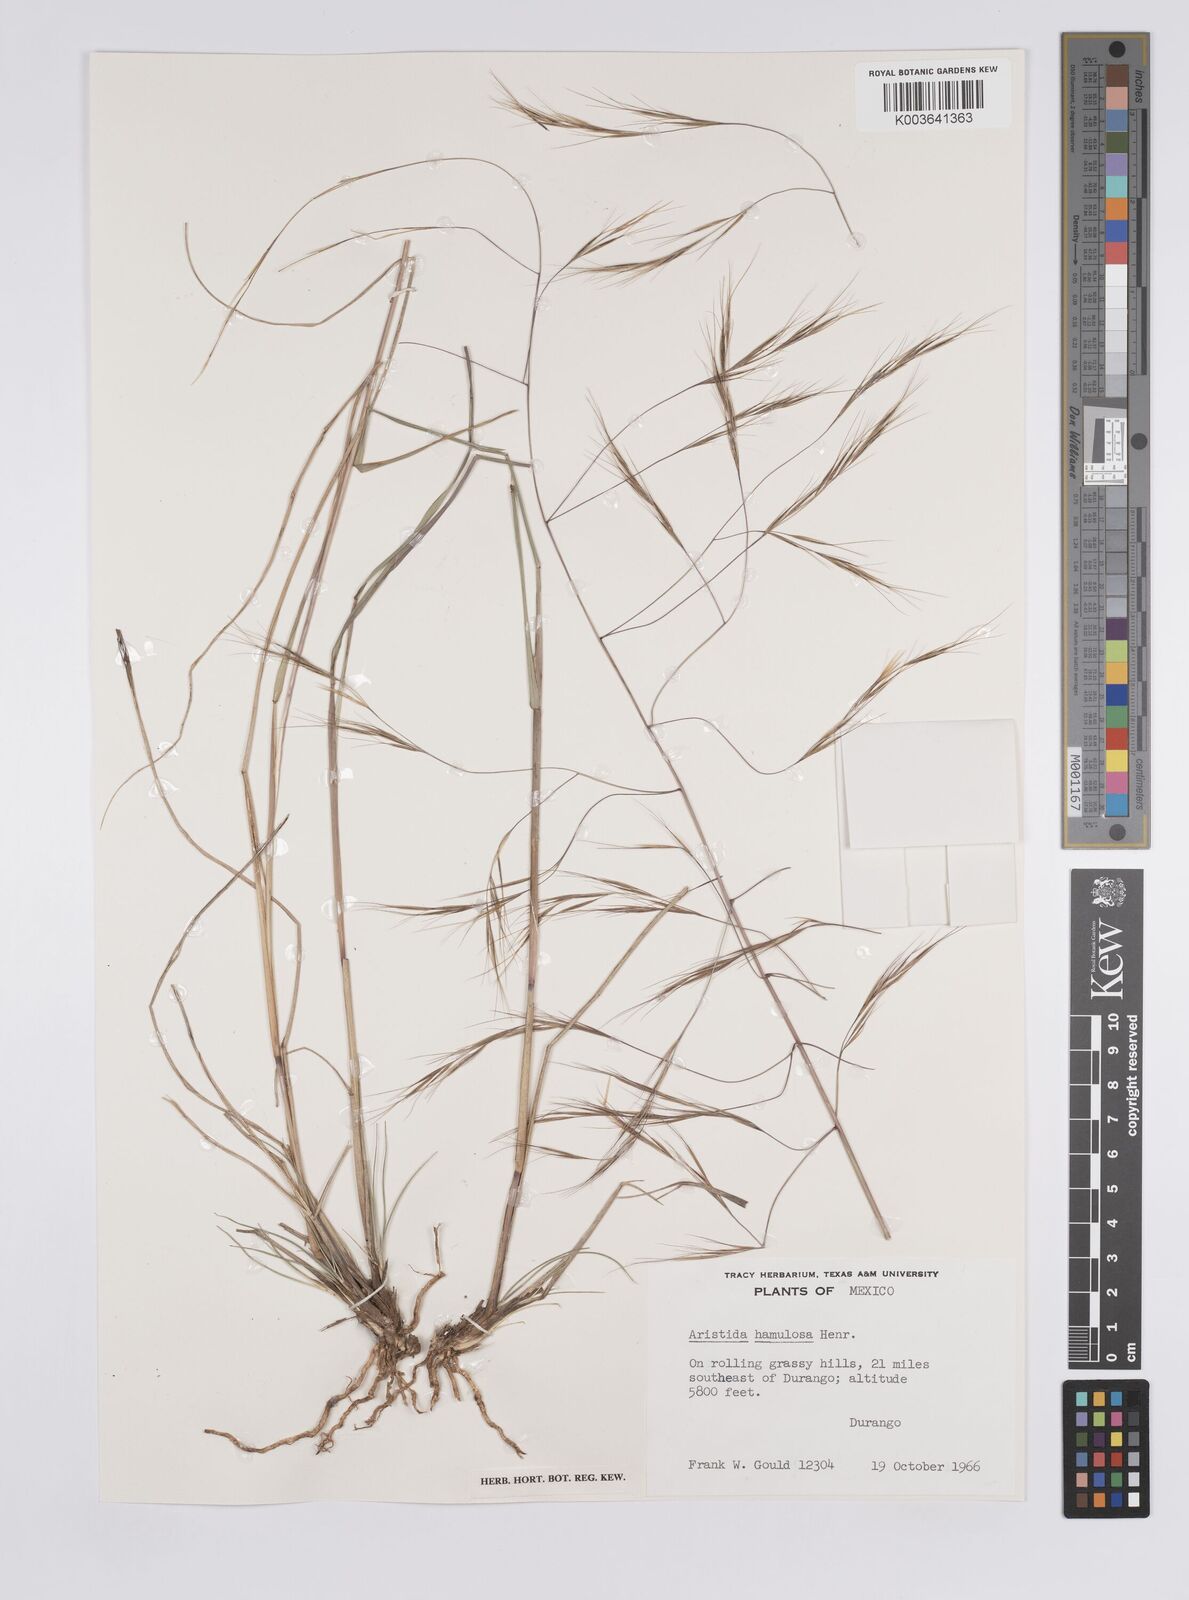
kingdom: Plantae
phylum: Tracheophyta
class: Liliopsida
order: Poales
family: Poaceae
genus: Aristida
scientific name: Aristida hamulosa
